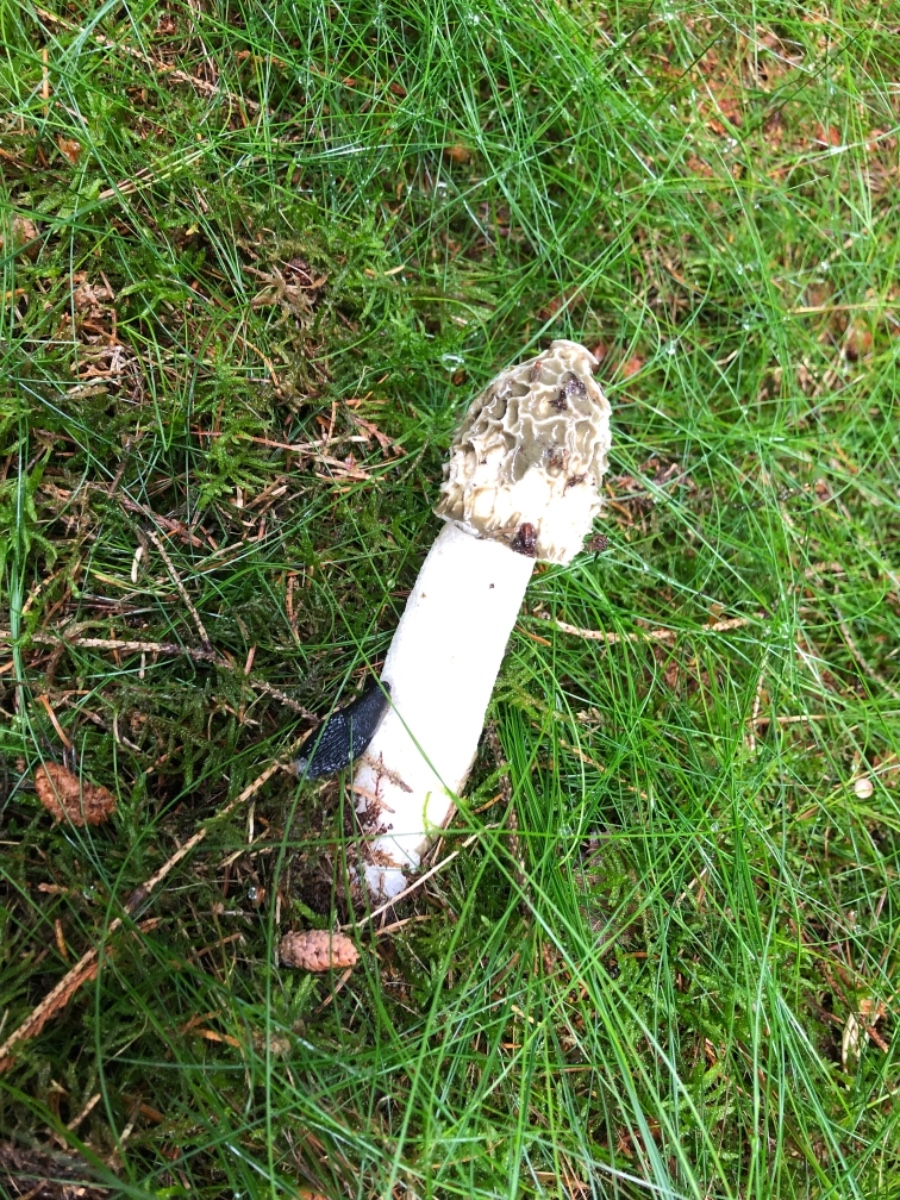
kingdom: Fungi
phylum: Basidiomycota
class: Agaricomycetes
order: Phallales
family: Phallaceae
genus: Phallus
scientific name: Phallus impudicus
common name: almindelig stinksvamp
